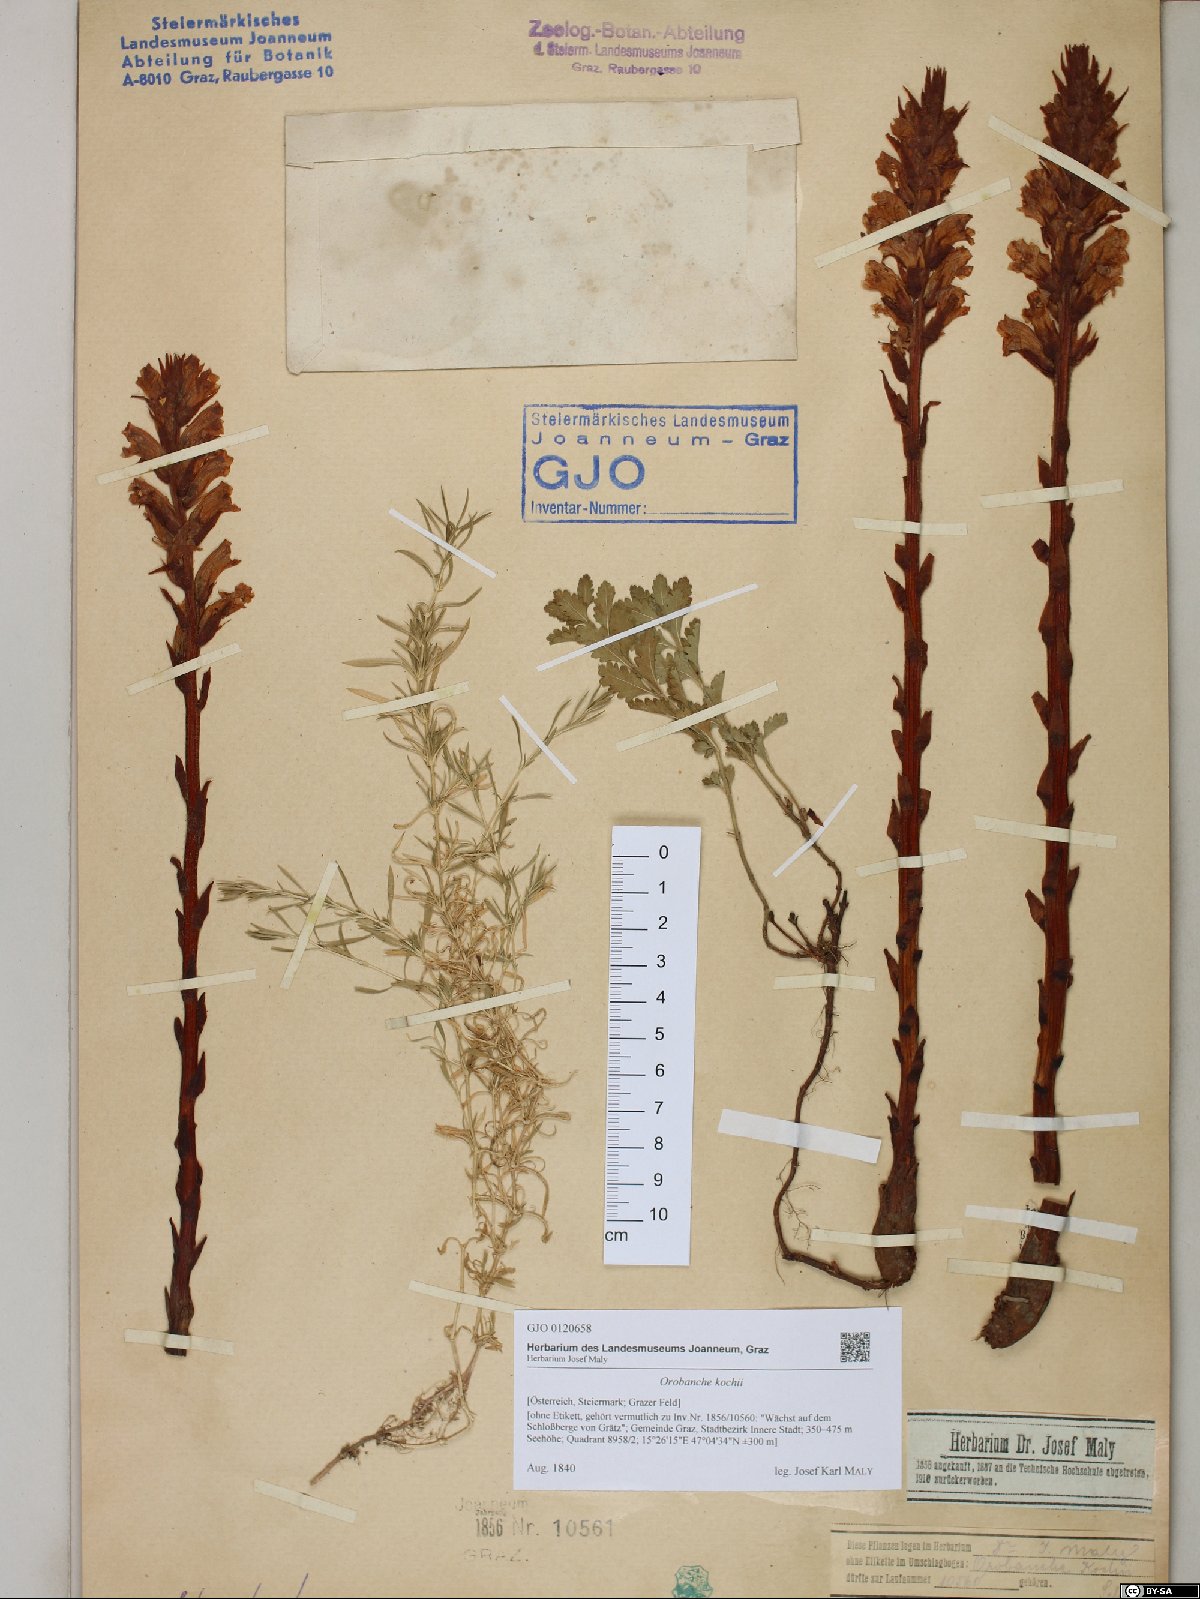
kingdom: Plantae
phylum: Tracheophyta
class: Magnoliopsida
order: Lamiales
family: Orobanchaceae
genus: Orobanche
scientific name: Orobanche centaurina
